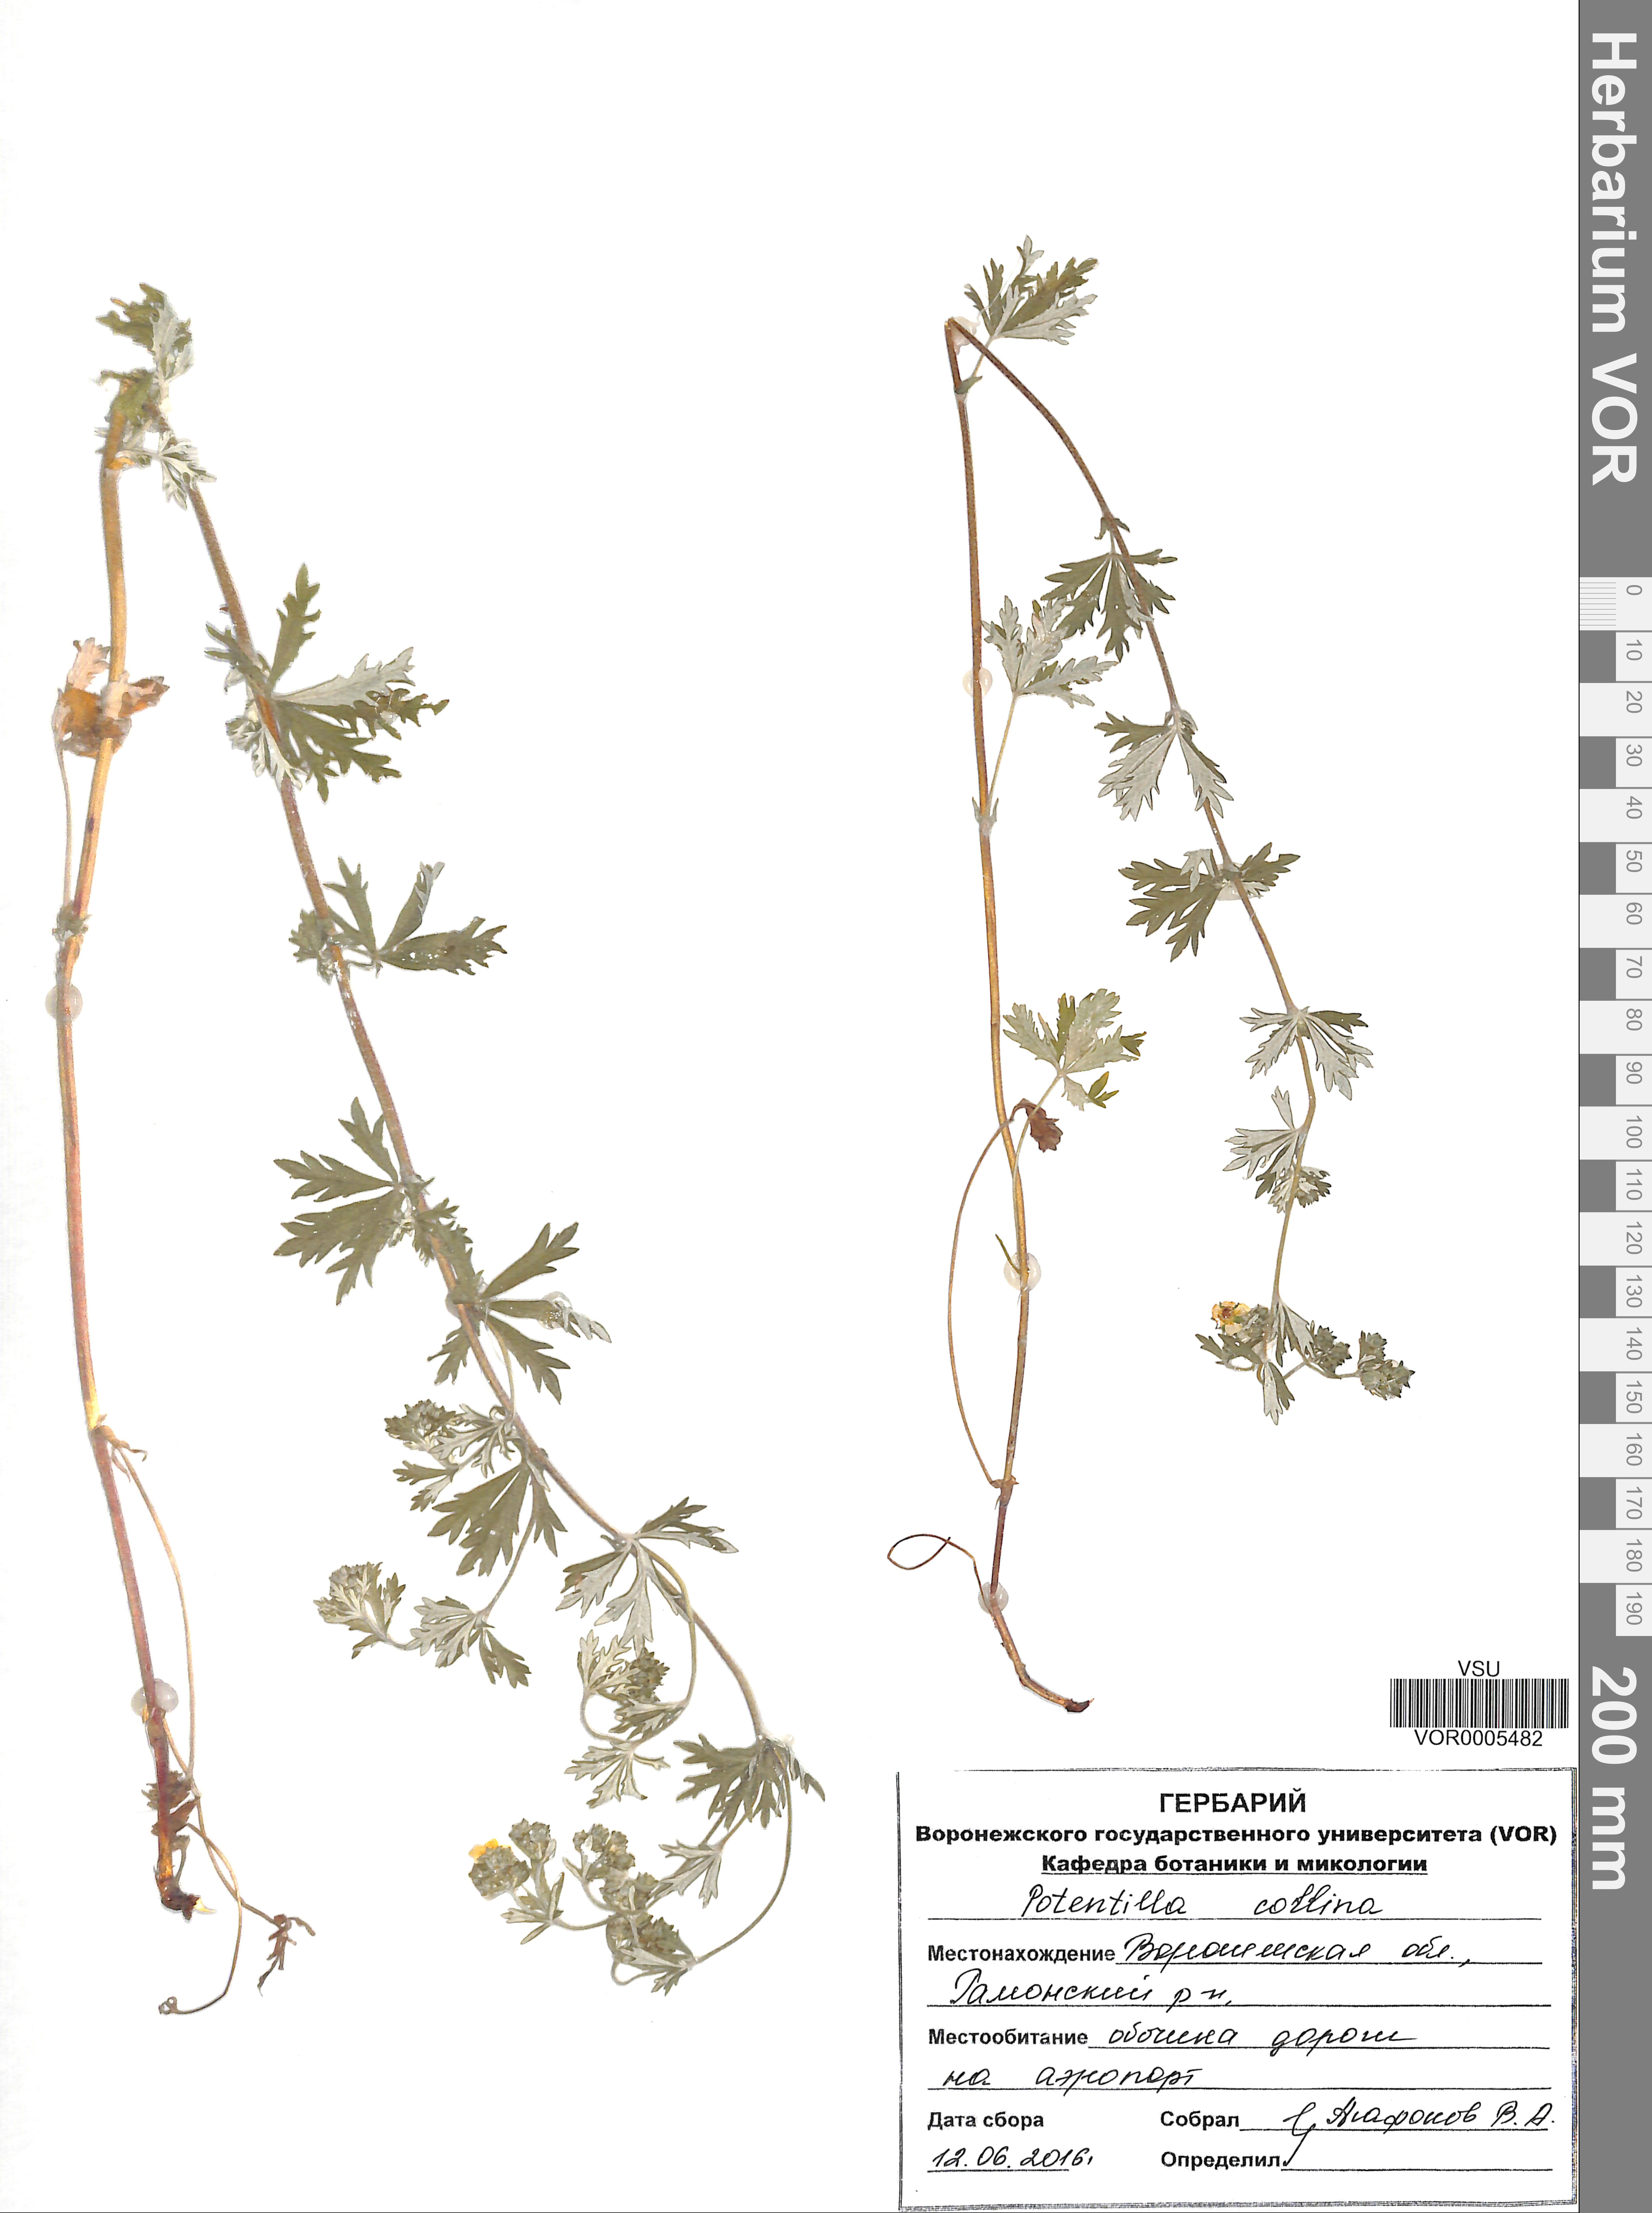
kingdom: Plantae
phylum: Tracheophyta
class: Magnoliopsida
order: Rosales
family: Rosaceae
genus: Potentilla
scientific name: Potentilla collina
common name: Palmleaf cinquefoil
